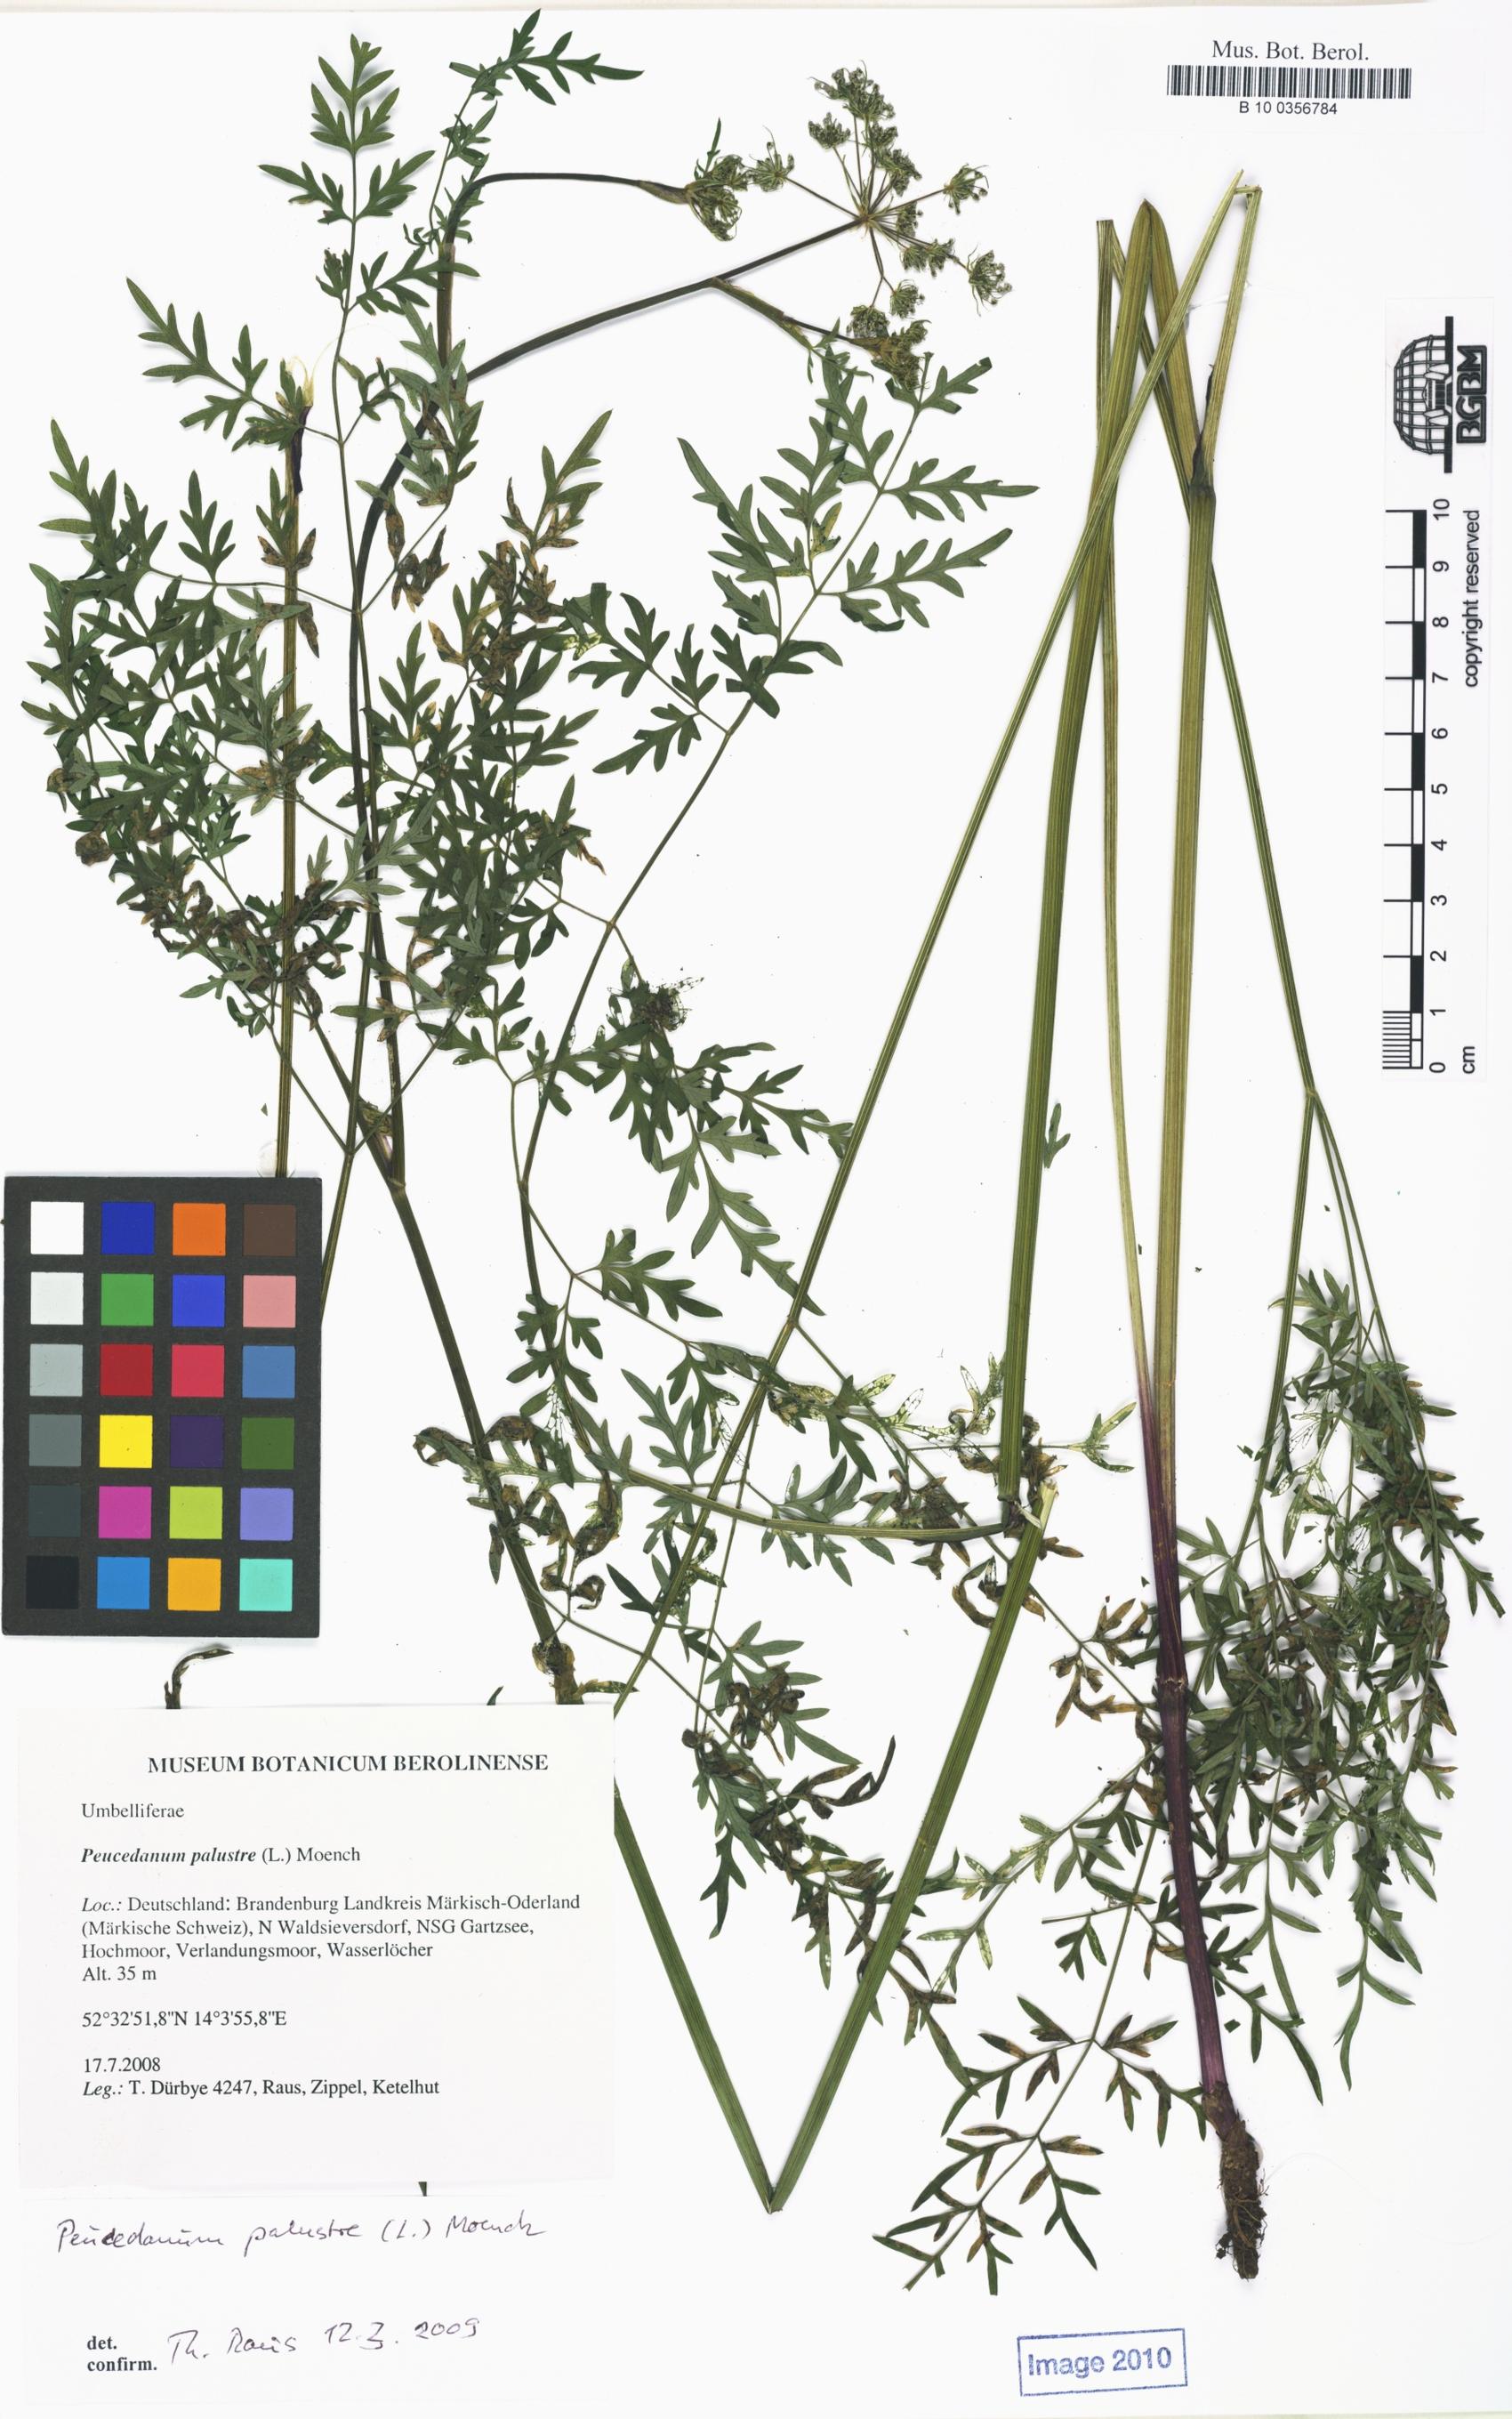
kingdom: Plantae
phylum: Tracheophyta
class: Magnoliopsida
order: Apiales
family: Apiaceae
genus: Thysselinum
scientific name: Thysselinum palustre
